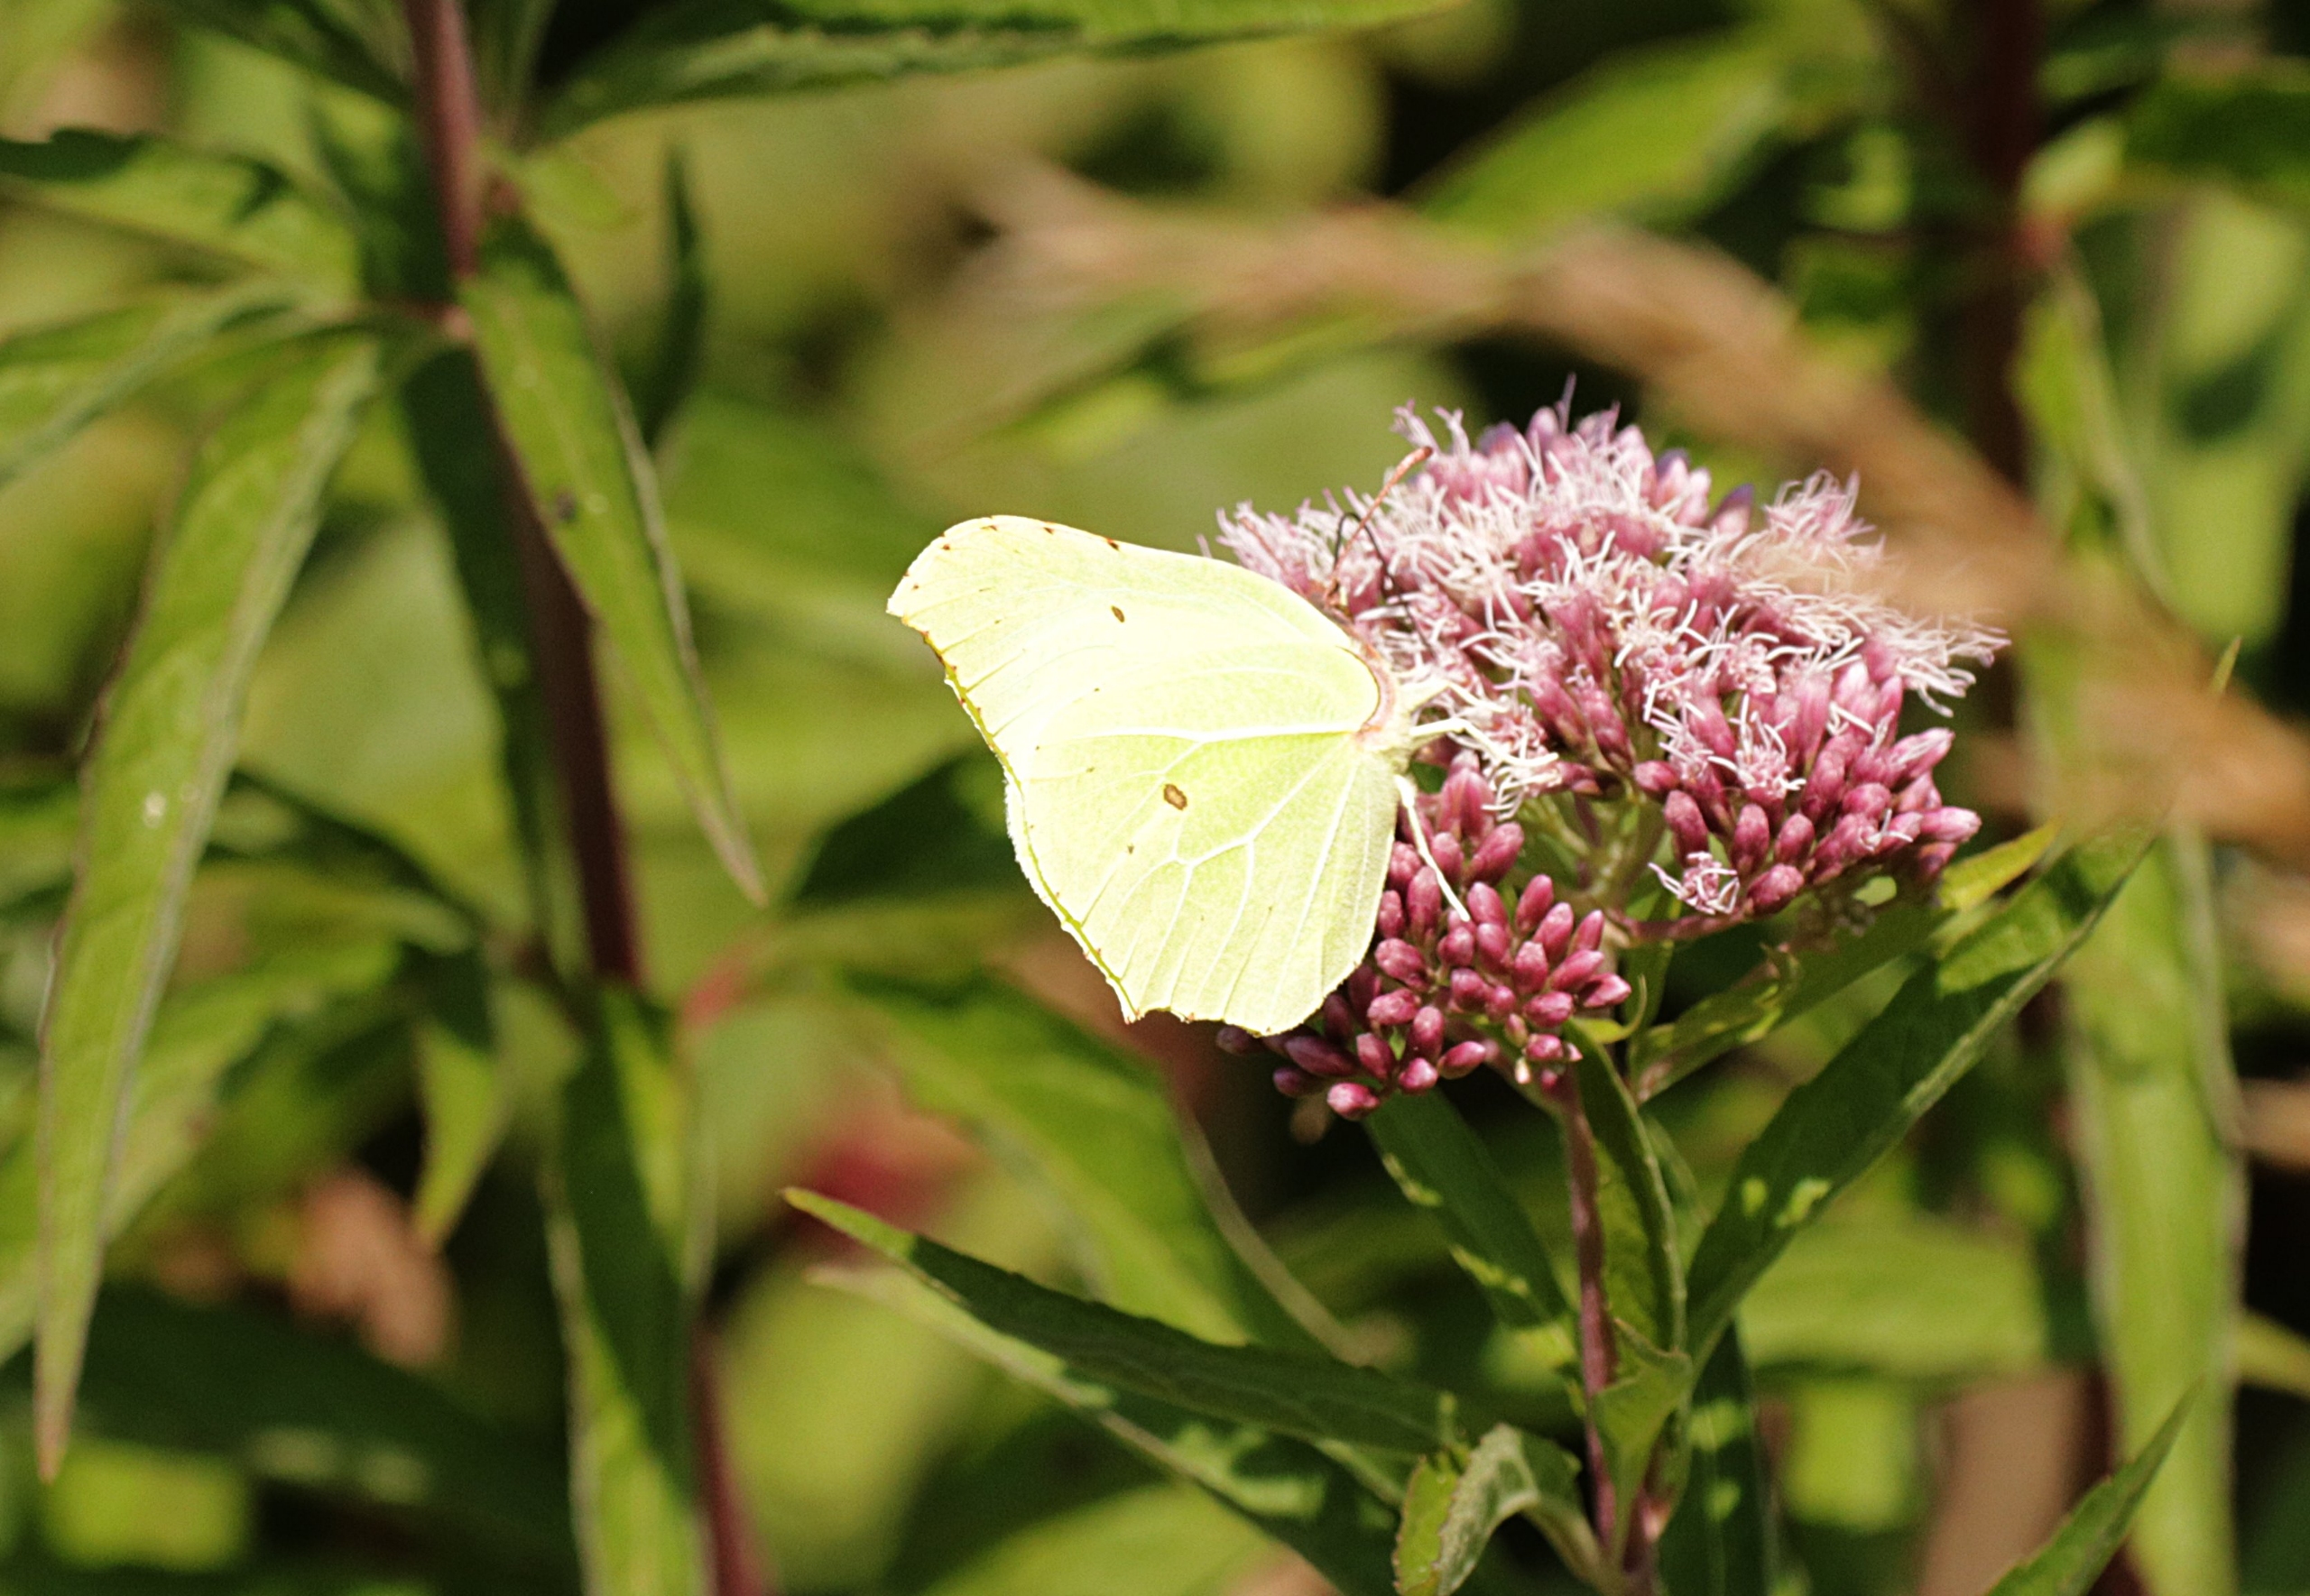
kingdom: Animalia
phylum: Arthropoda
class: Insecta
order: Lepidoptera
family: Pieridae
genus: Gonepteryx
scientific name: Gonepteryx rhamni
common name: Citronsommerfugl
